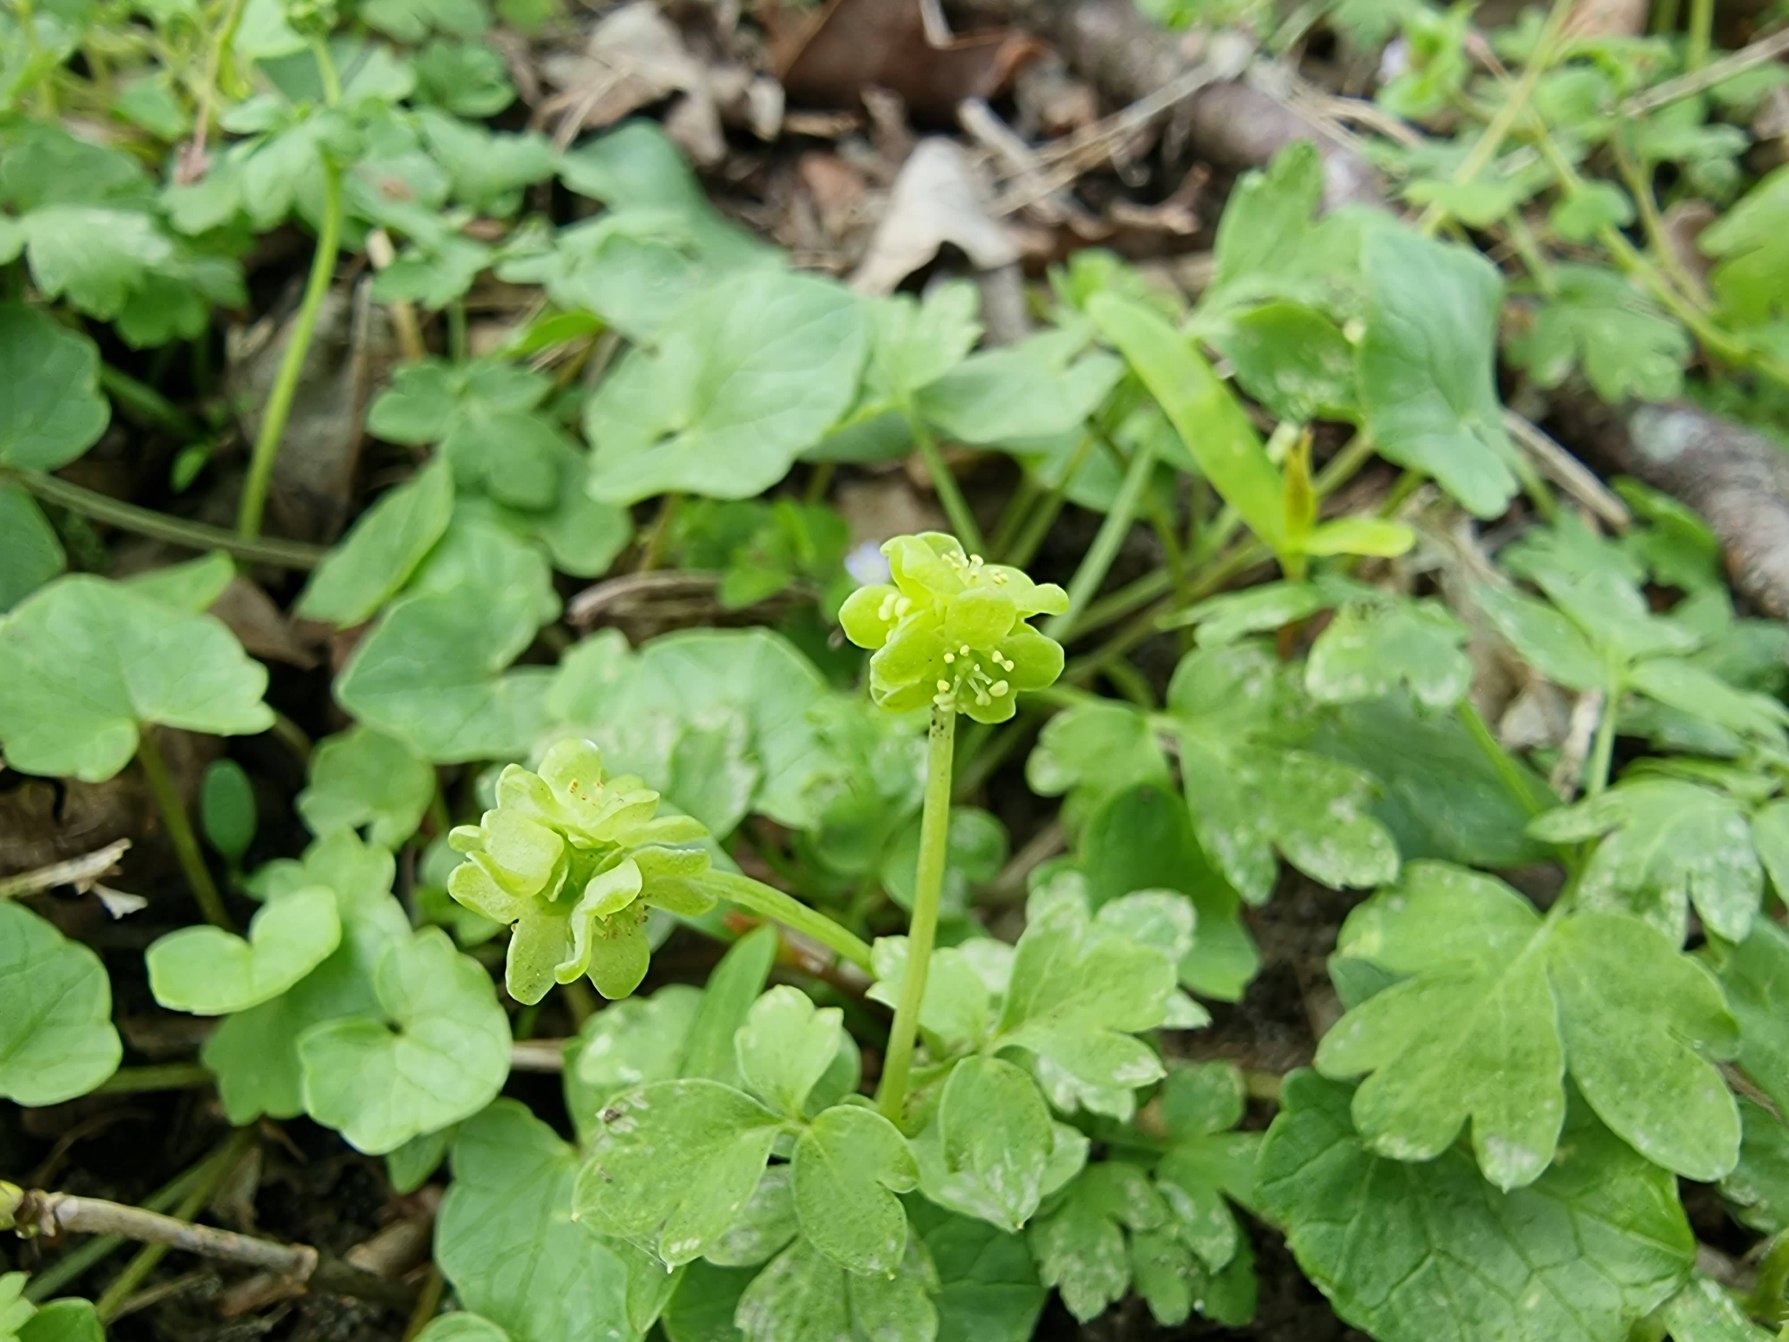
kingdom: Plantae
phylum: Tracheophyta
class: Magnoliopsida
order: Dipsacales
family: Viburnaceae
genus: Adoxa
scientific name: Adoxa moschatellina
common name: Desmerurt
